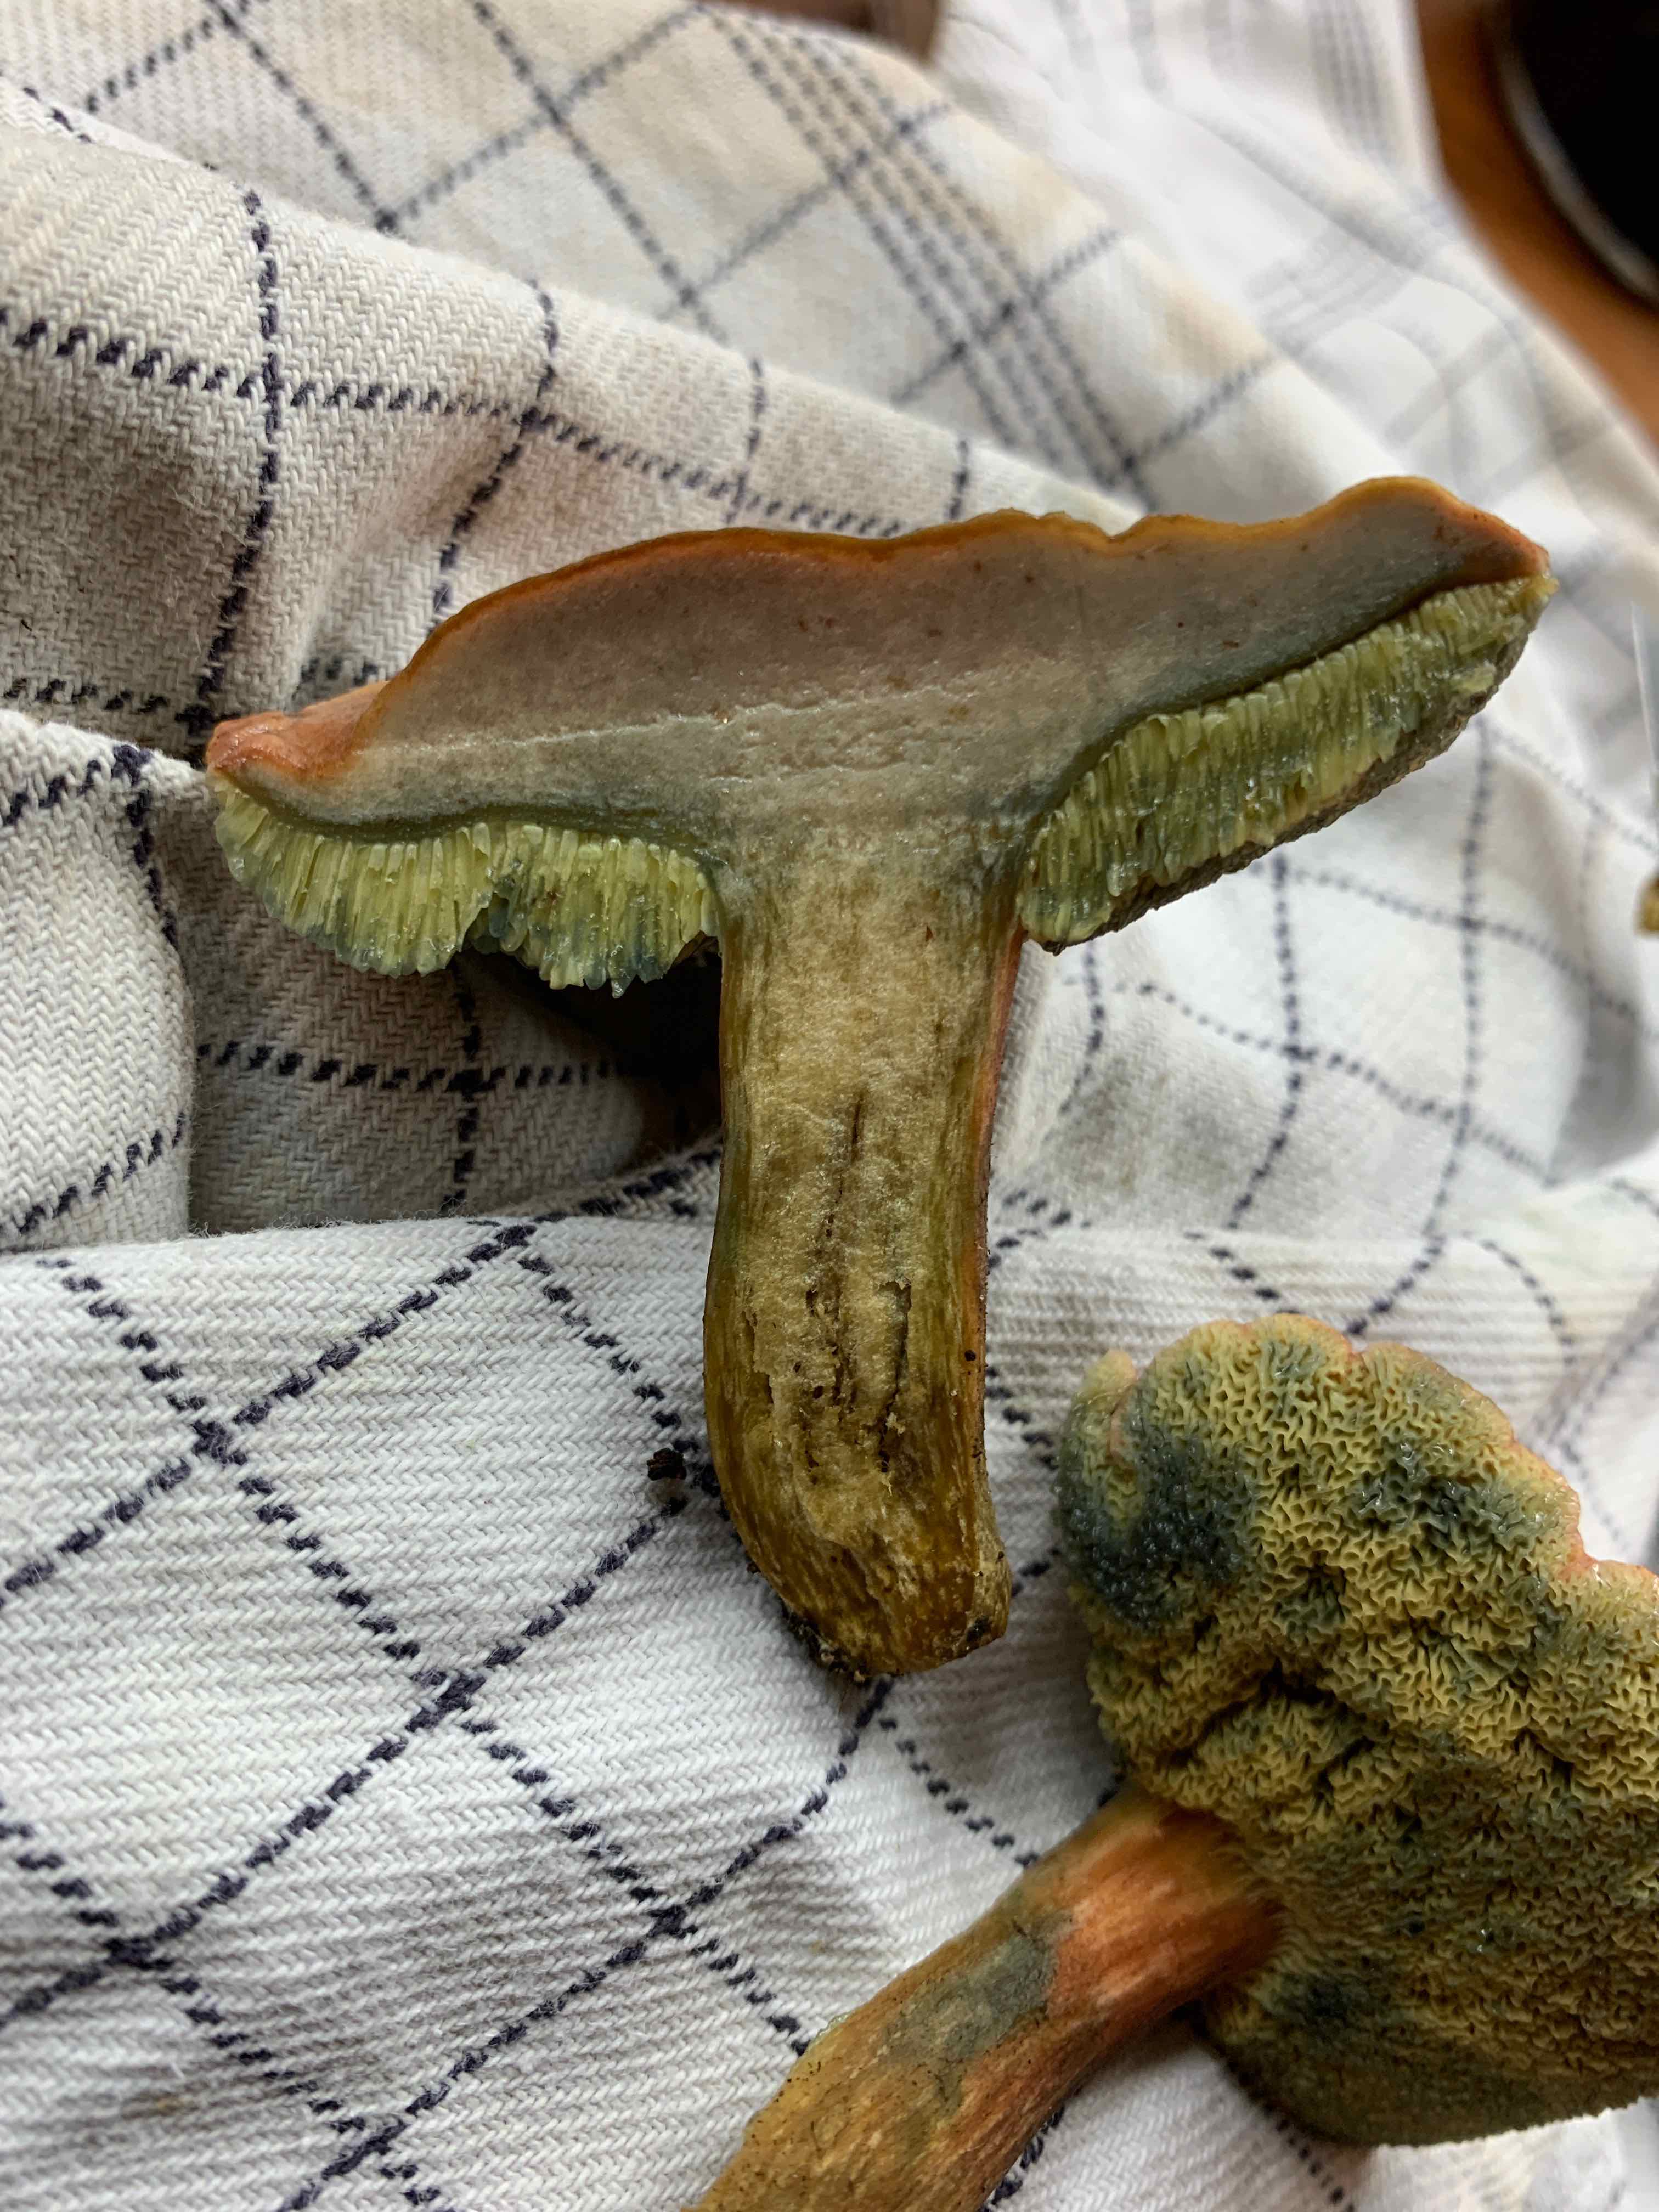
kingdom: Fungi
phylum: Basidiomycota
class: Agaricomycetes
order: Boletales
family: Boletaceae
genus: Hortiboletus
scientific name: Hortiboletus bubalinus
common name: aurora-rørhat
